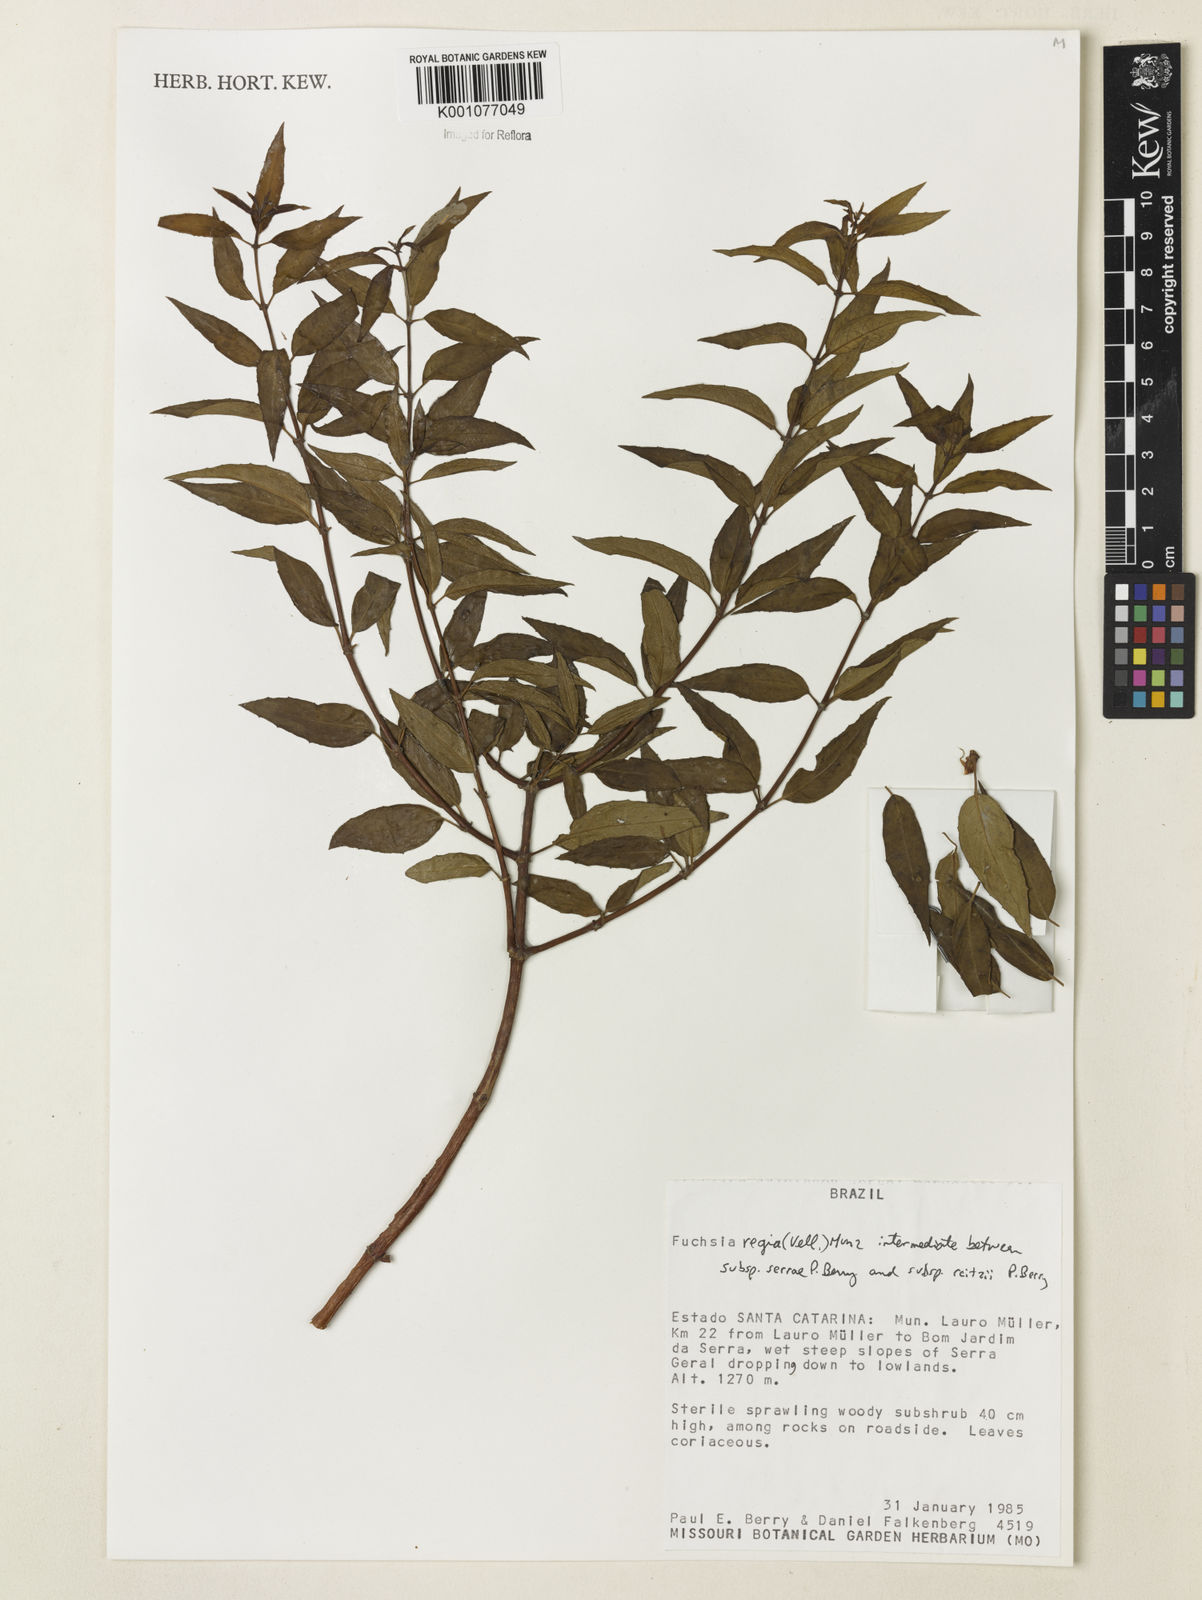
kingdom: Plantae
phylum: Tracheophyta
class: Magnoliopsida
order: Myrtales
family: Onagraceae
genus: Fuchsia
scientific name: Fuchsia regia
